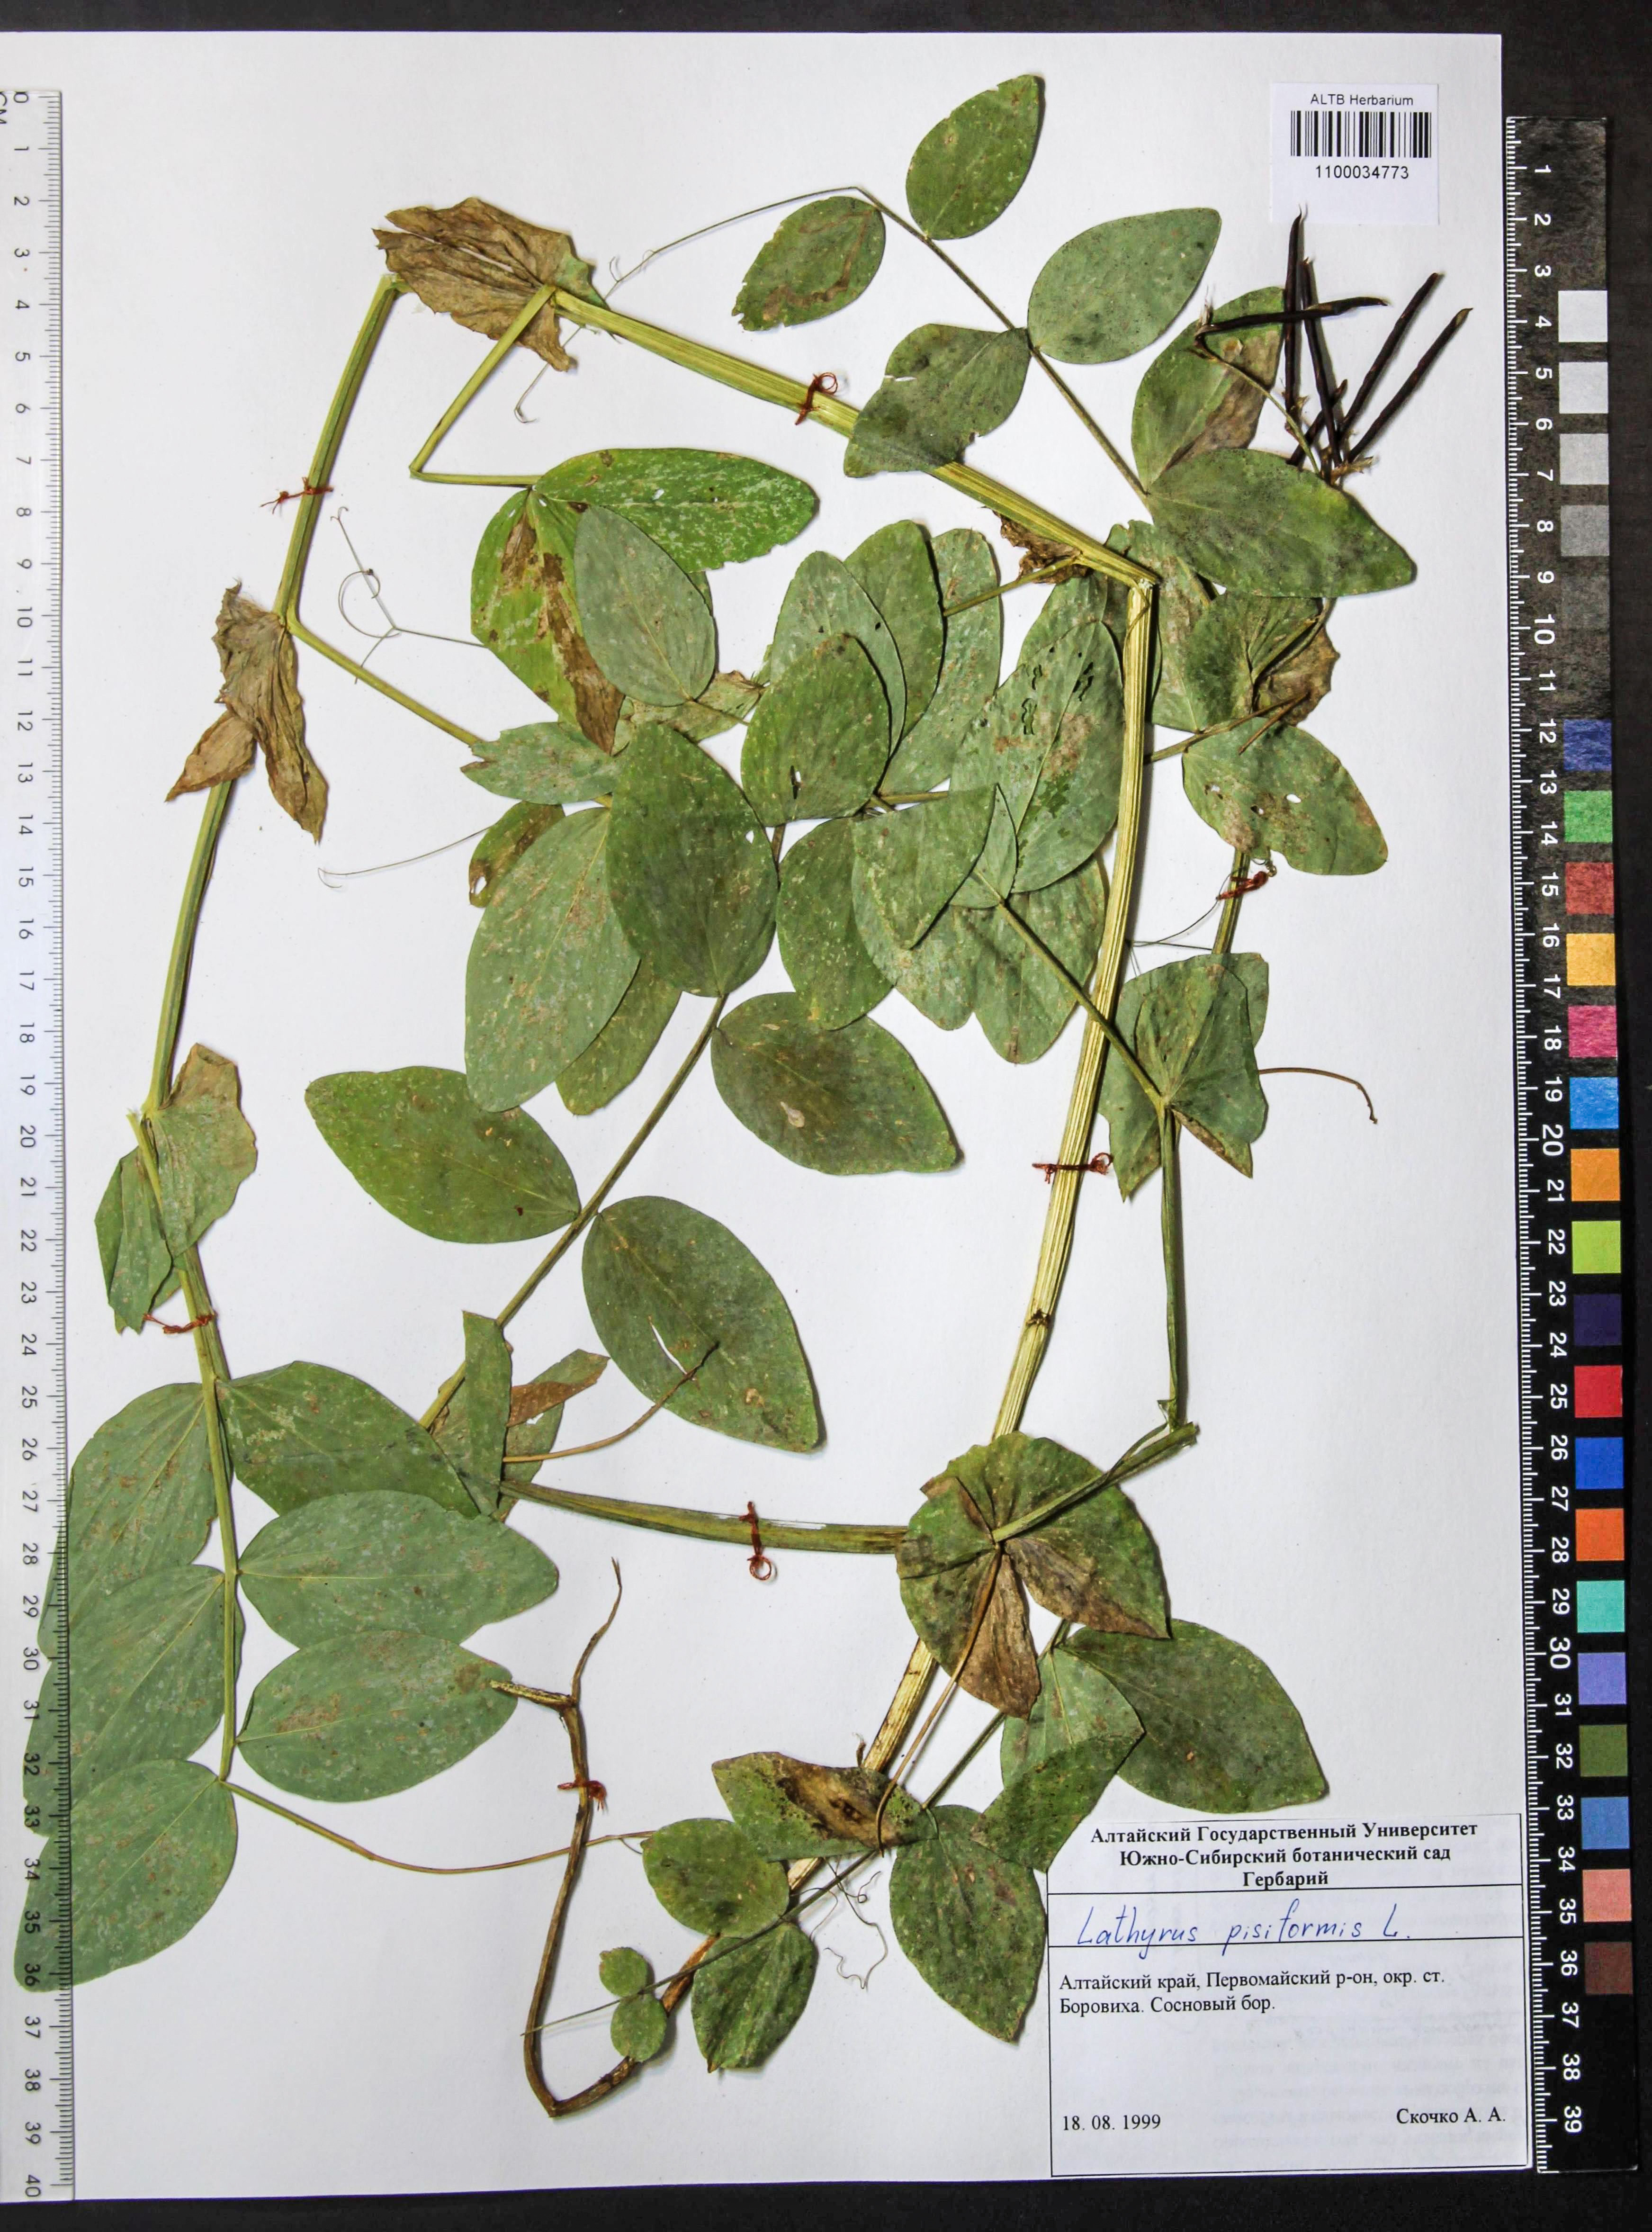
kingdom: Plantae
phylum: Tracheophyta
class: Magnoliopsida
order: Fabales
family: Fabaceae
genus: Lathyrus
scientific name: Lathyrus pisiformis
